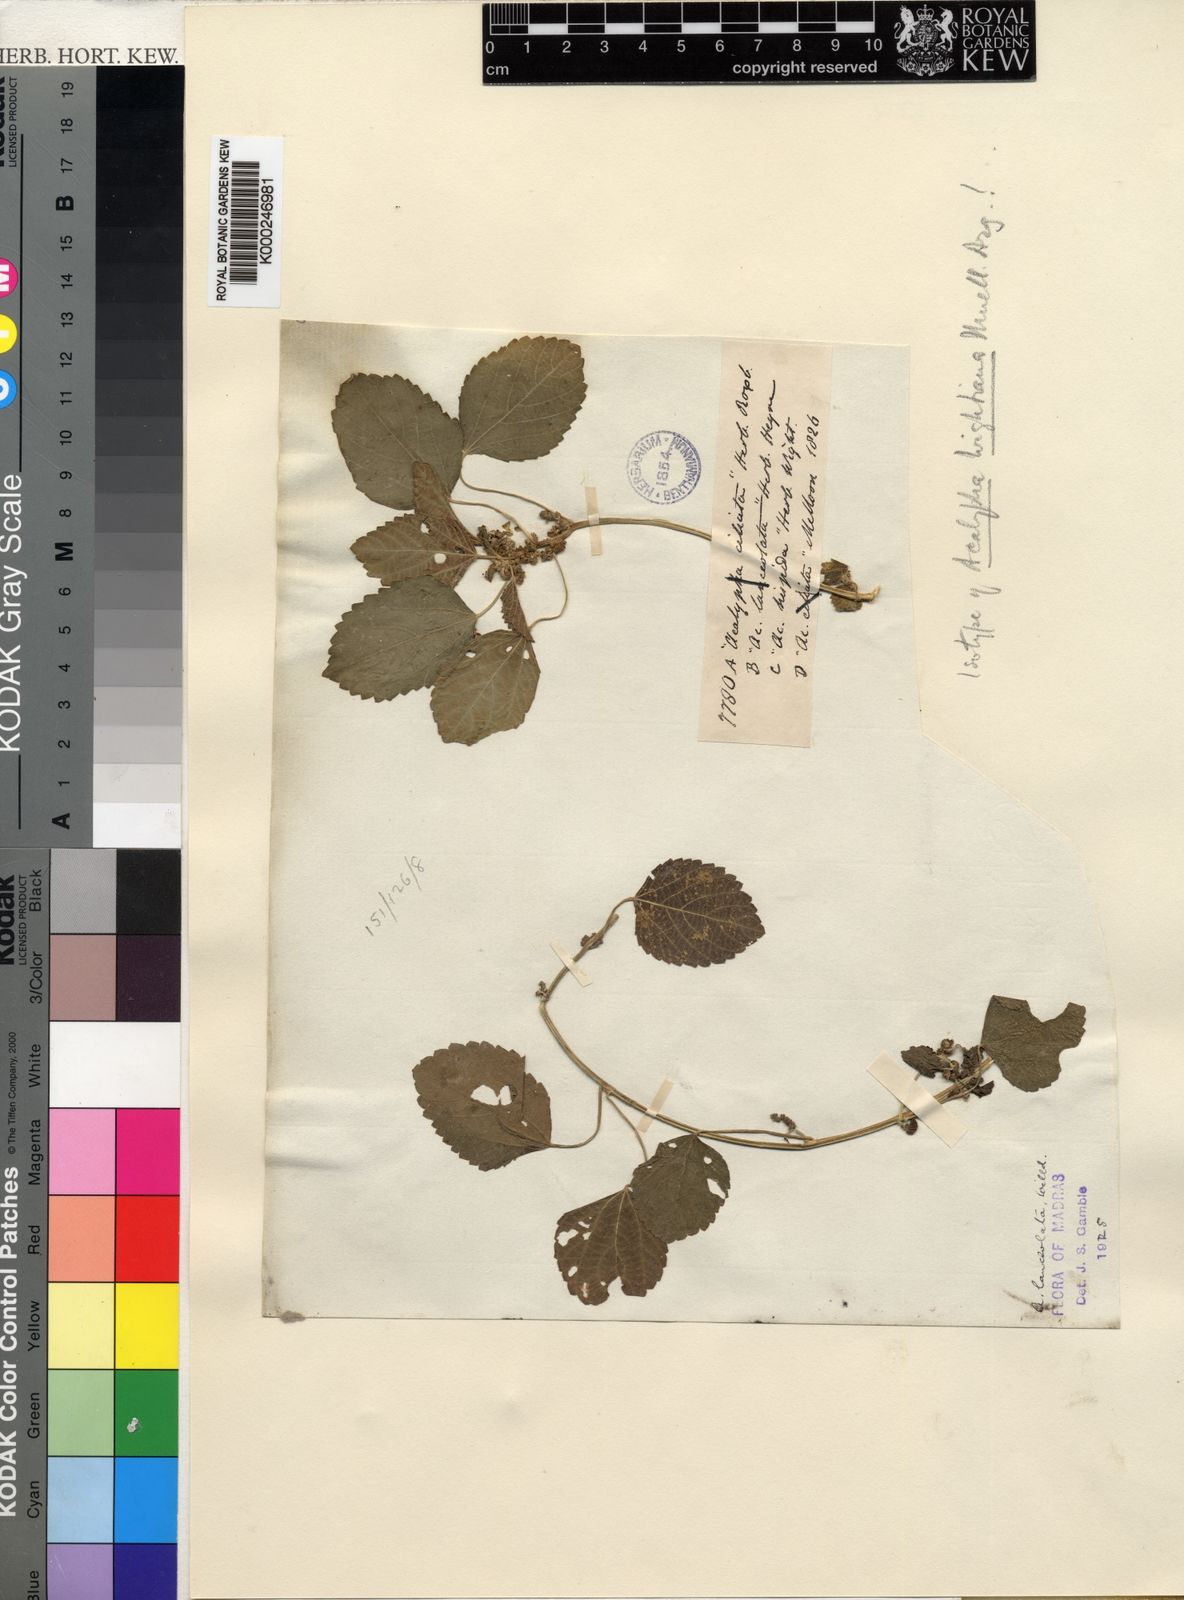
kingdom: Plantae
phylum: Tracheophyta
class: Magnoliopsida
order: Malpighiales
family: Euphorbiaceae
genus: Acalypha
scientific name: Acalypha lanceolata
